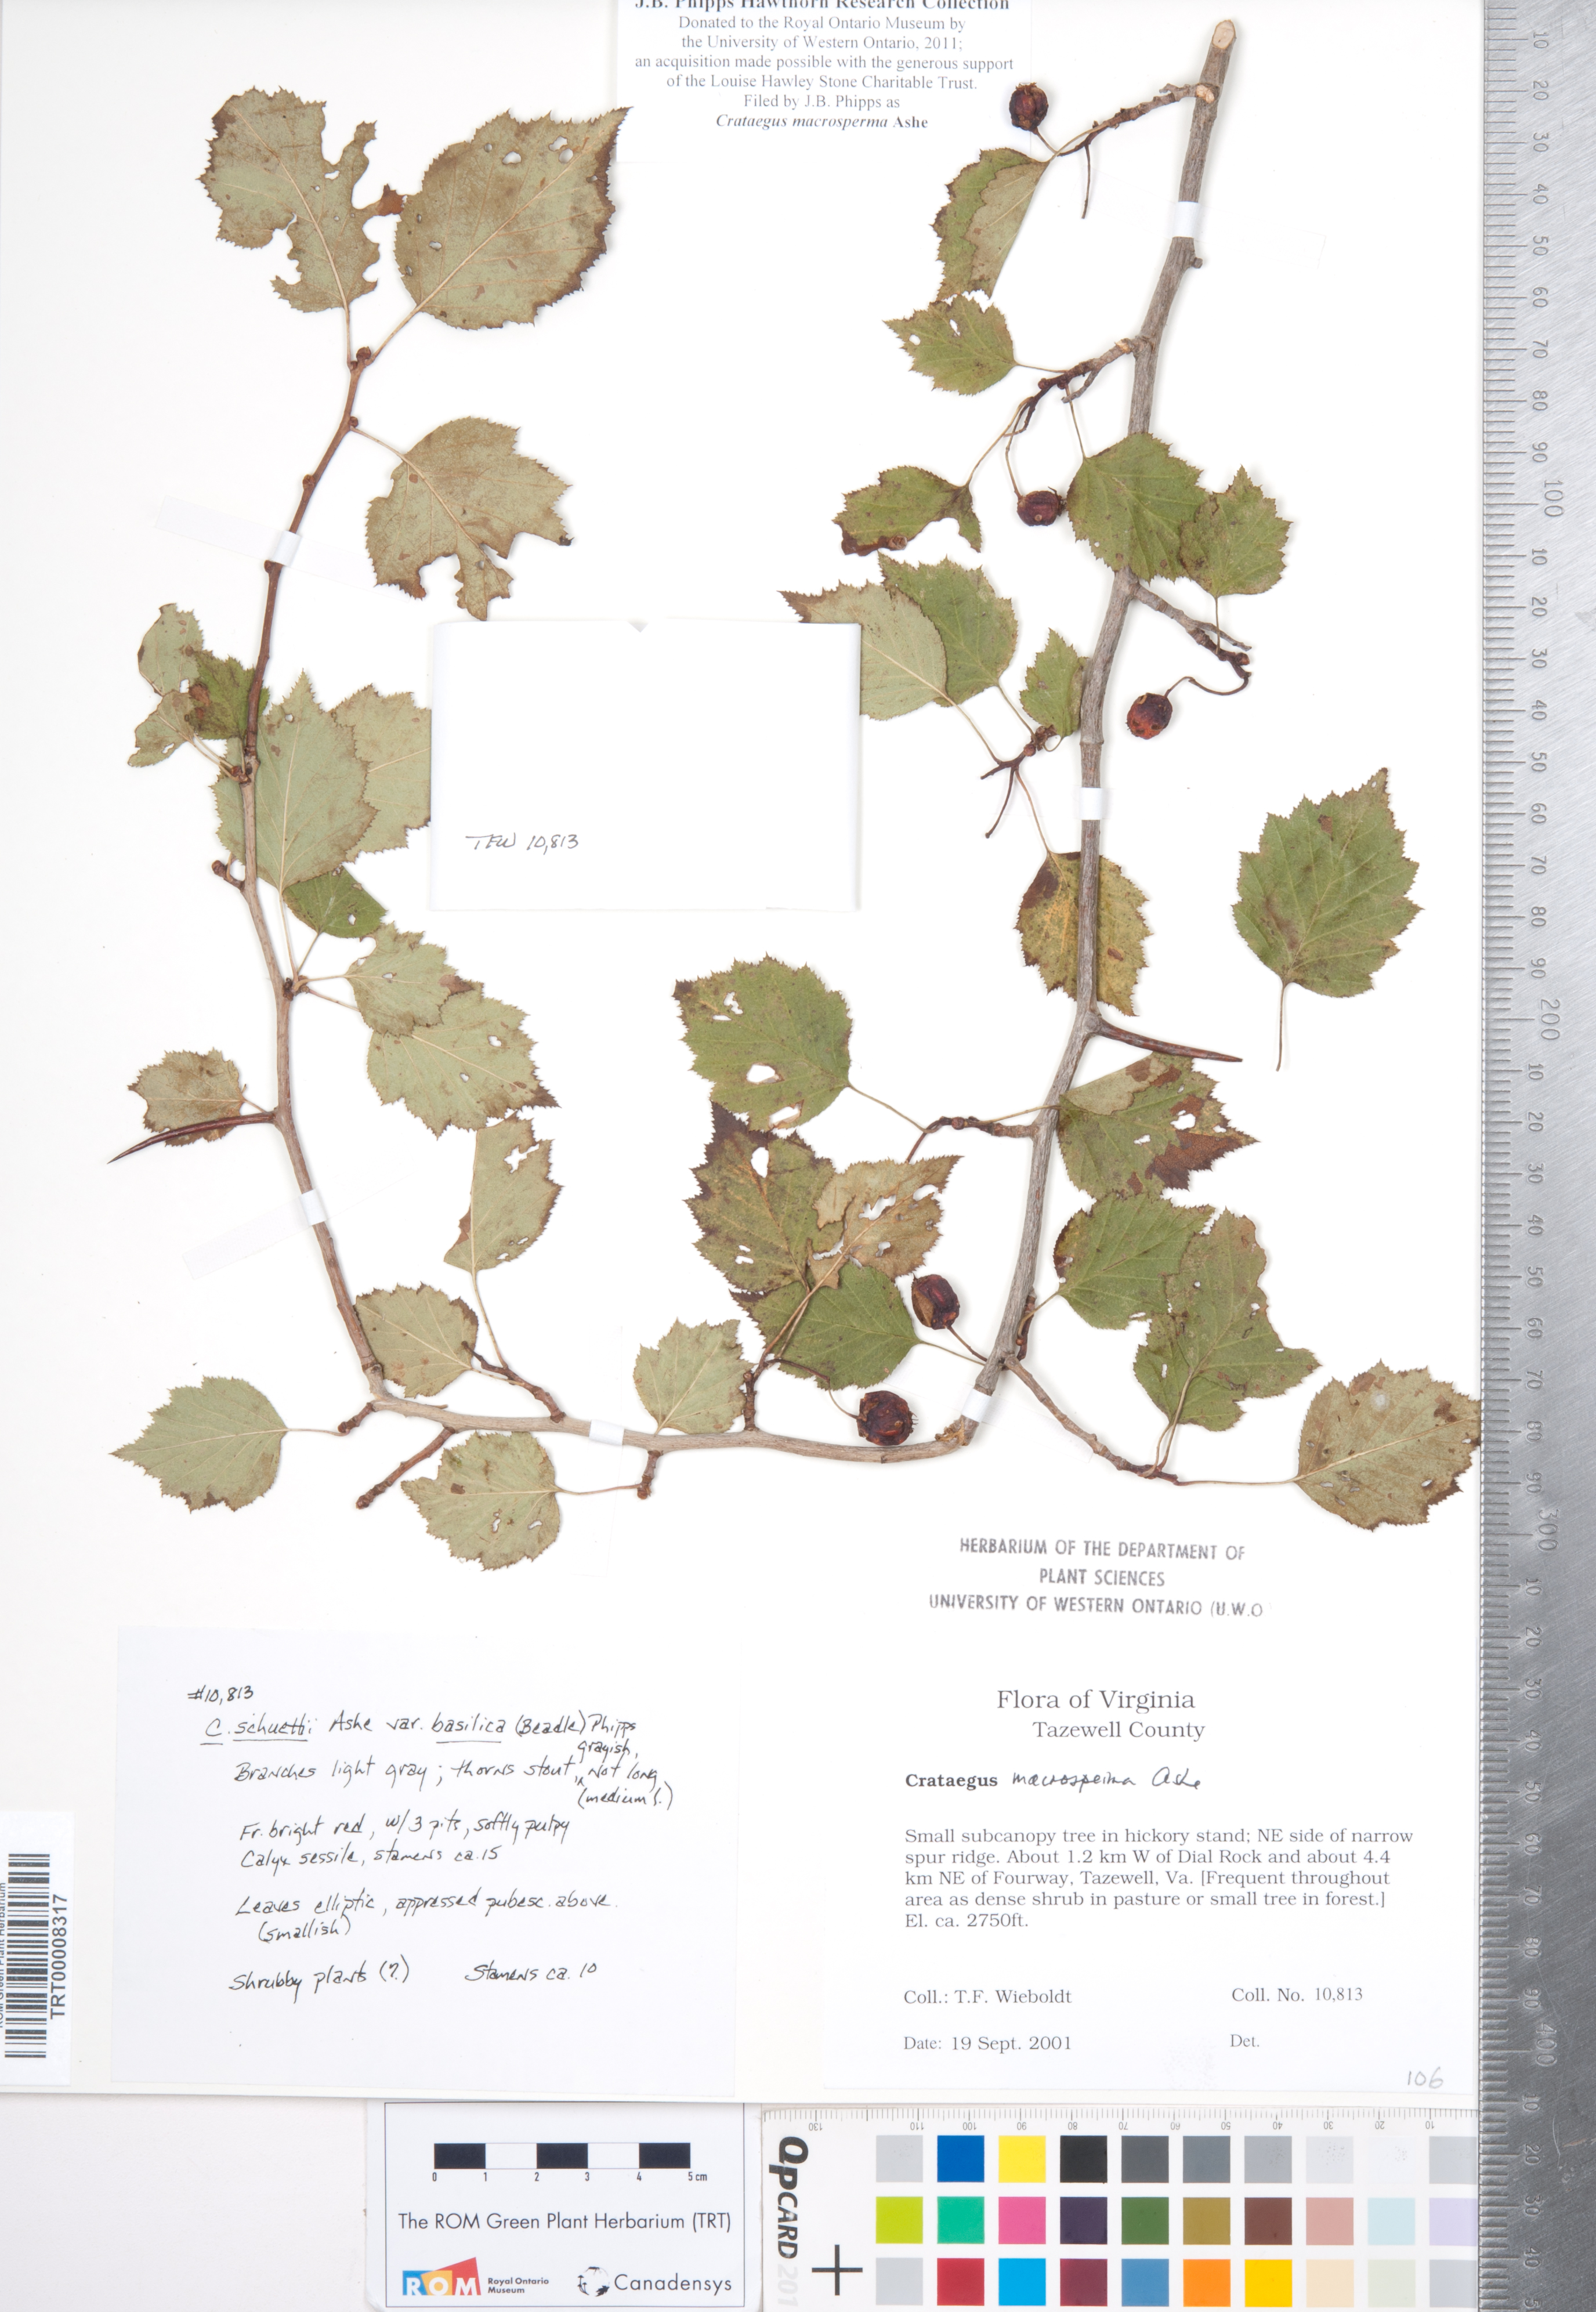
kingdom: Plantae
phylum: Tracheophyta
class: Magnoliopsida
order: Rosales
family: Rosaceae
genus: Crataegus
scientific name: Crataegus macrosperma
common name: Variable hawthorn
